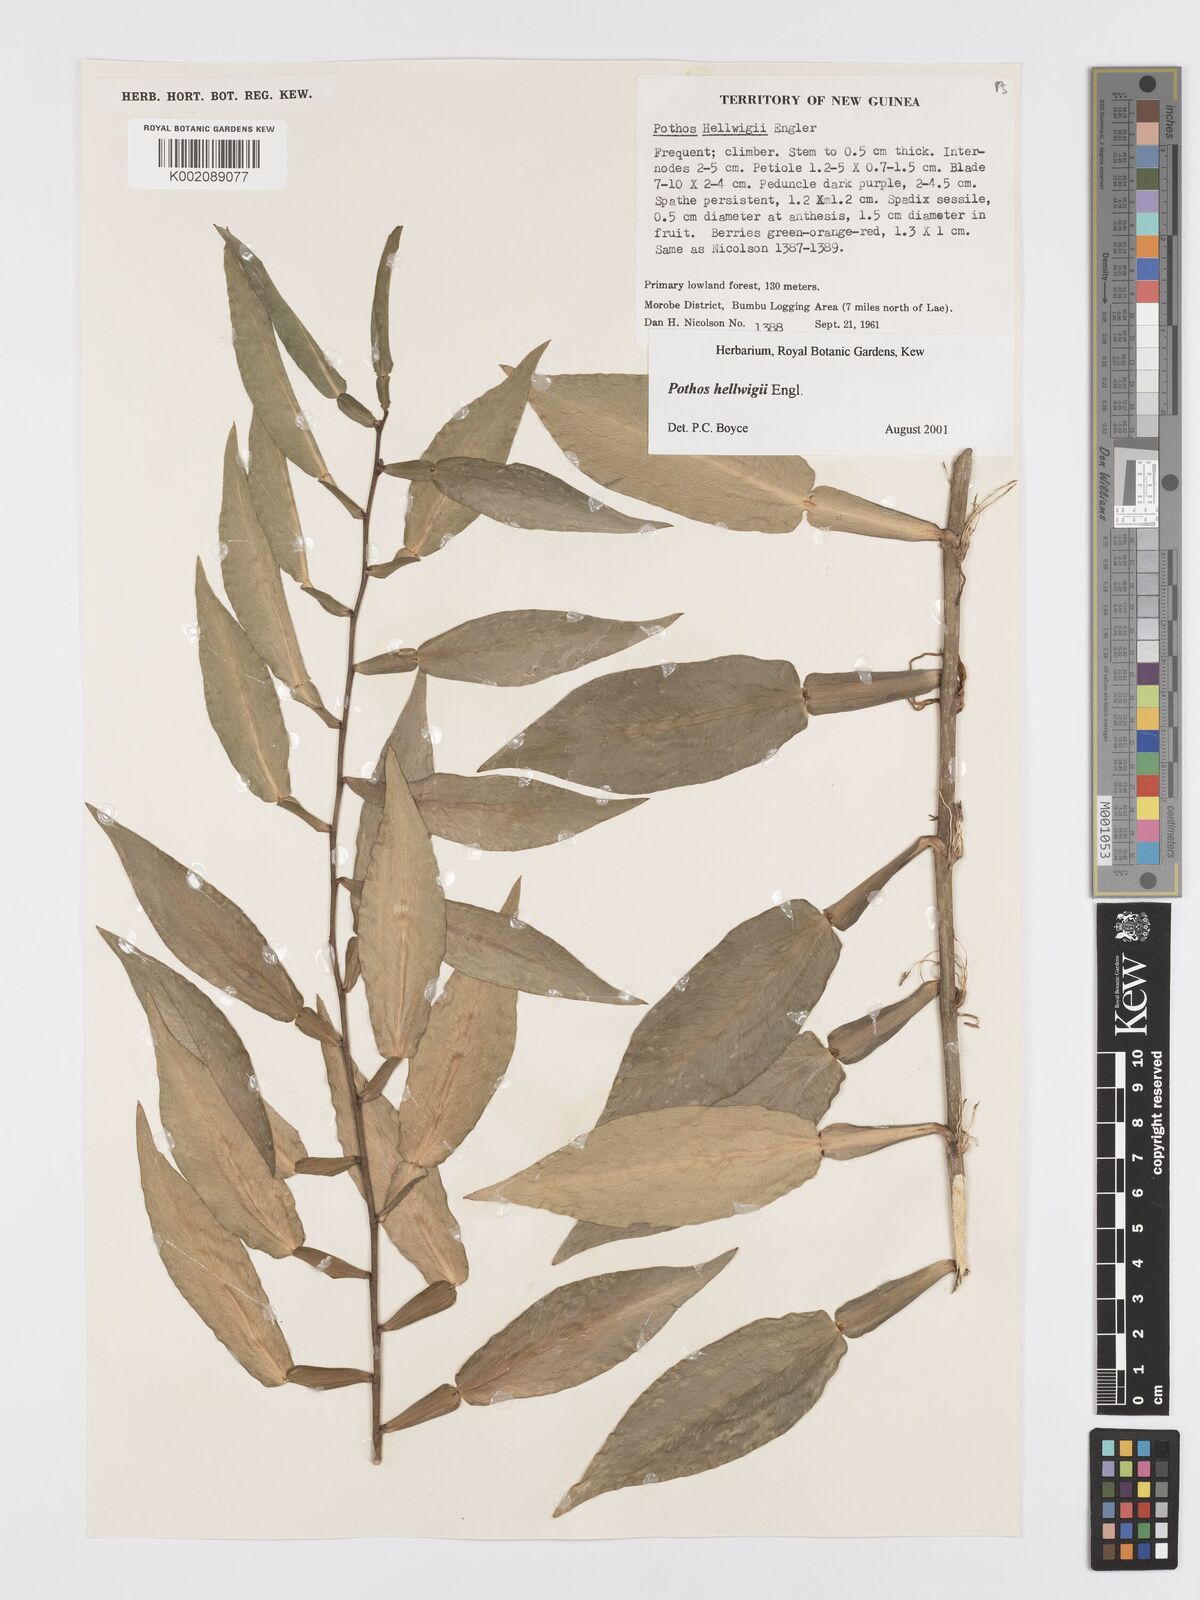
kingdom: Plantae
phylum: Tracheophyta
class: Liliopsida
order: Alismatales
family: Araceae
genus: Pothos
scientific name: Pothos hellwigii
